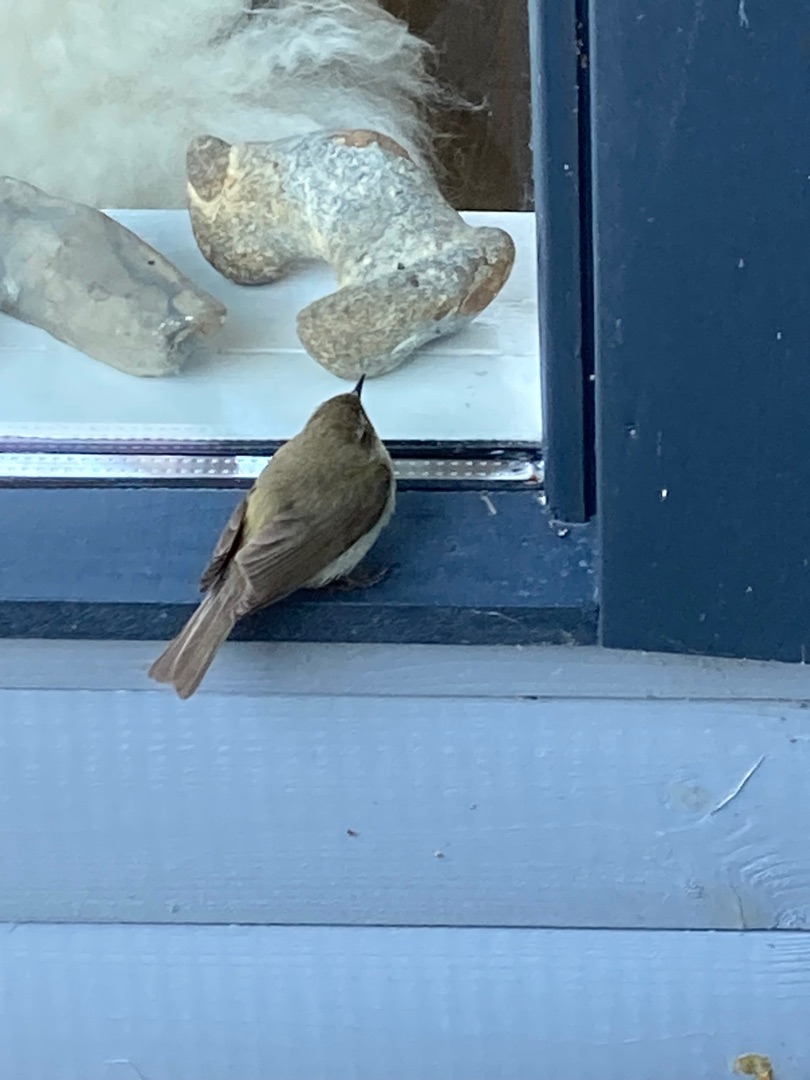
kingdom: Animalia
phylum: Chordata
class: Aves
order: Passeriformes
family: Phylloscopidae
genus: Phylloscopus
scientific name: Phylloscopus collybita
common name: Gransanger
